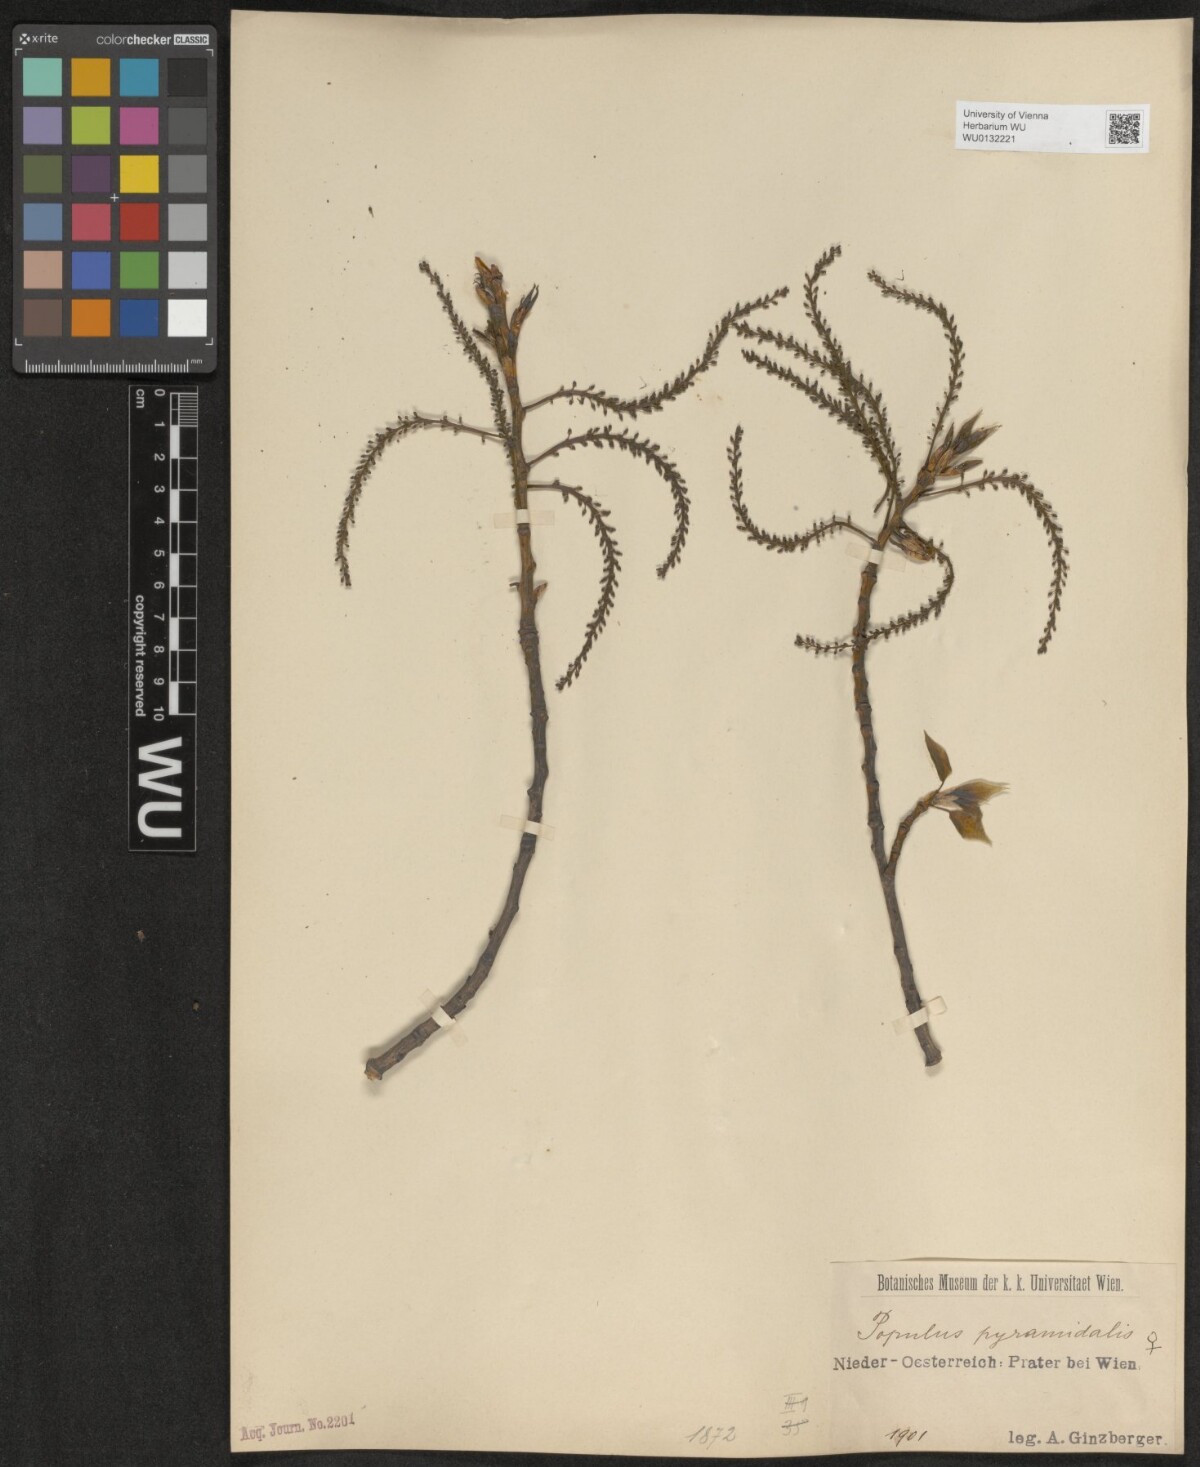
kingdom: Plantae
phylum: Tracheophyta
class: Magnoliopsida
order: Malpighiales
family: Salicaceae
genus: Populus
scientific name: Populus nigra
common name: Black poplar
